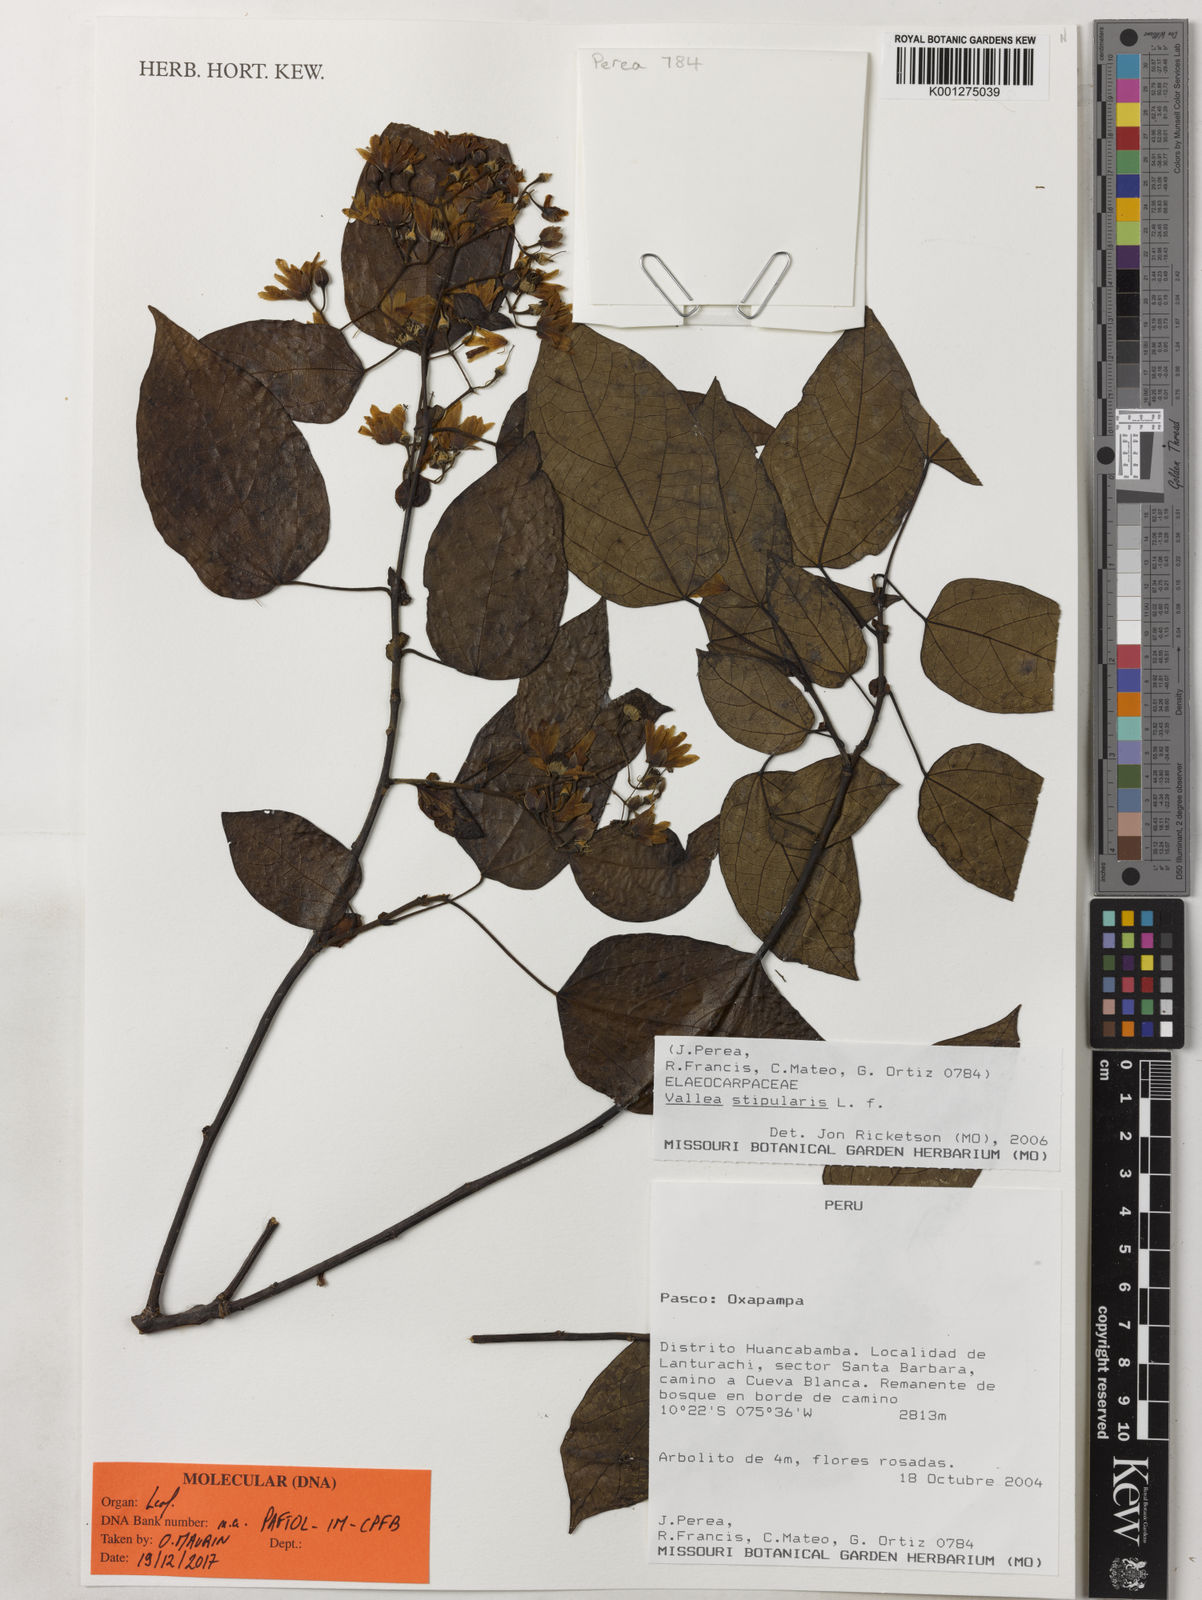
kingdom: Plantae
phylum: Tracheophyta
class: Magnoliopsida
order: Oxalidales
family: Elaeocarpaceae
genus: Vallea
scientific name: Vallea stipularis
